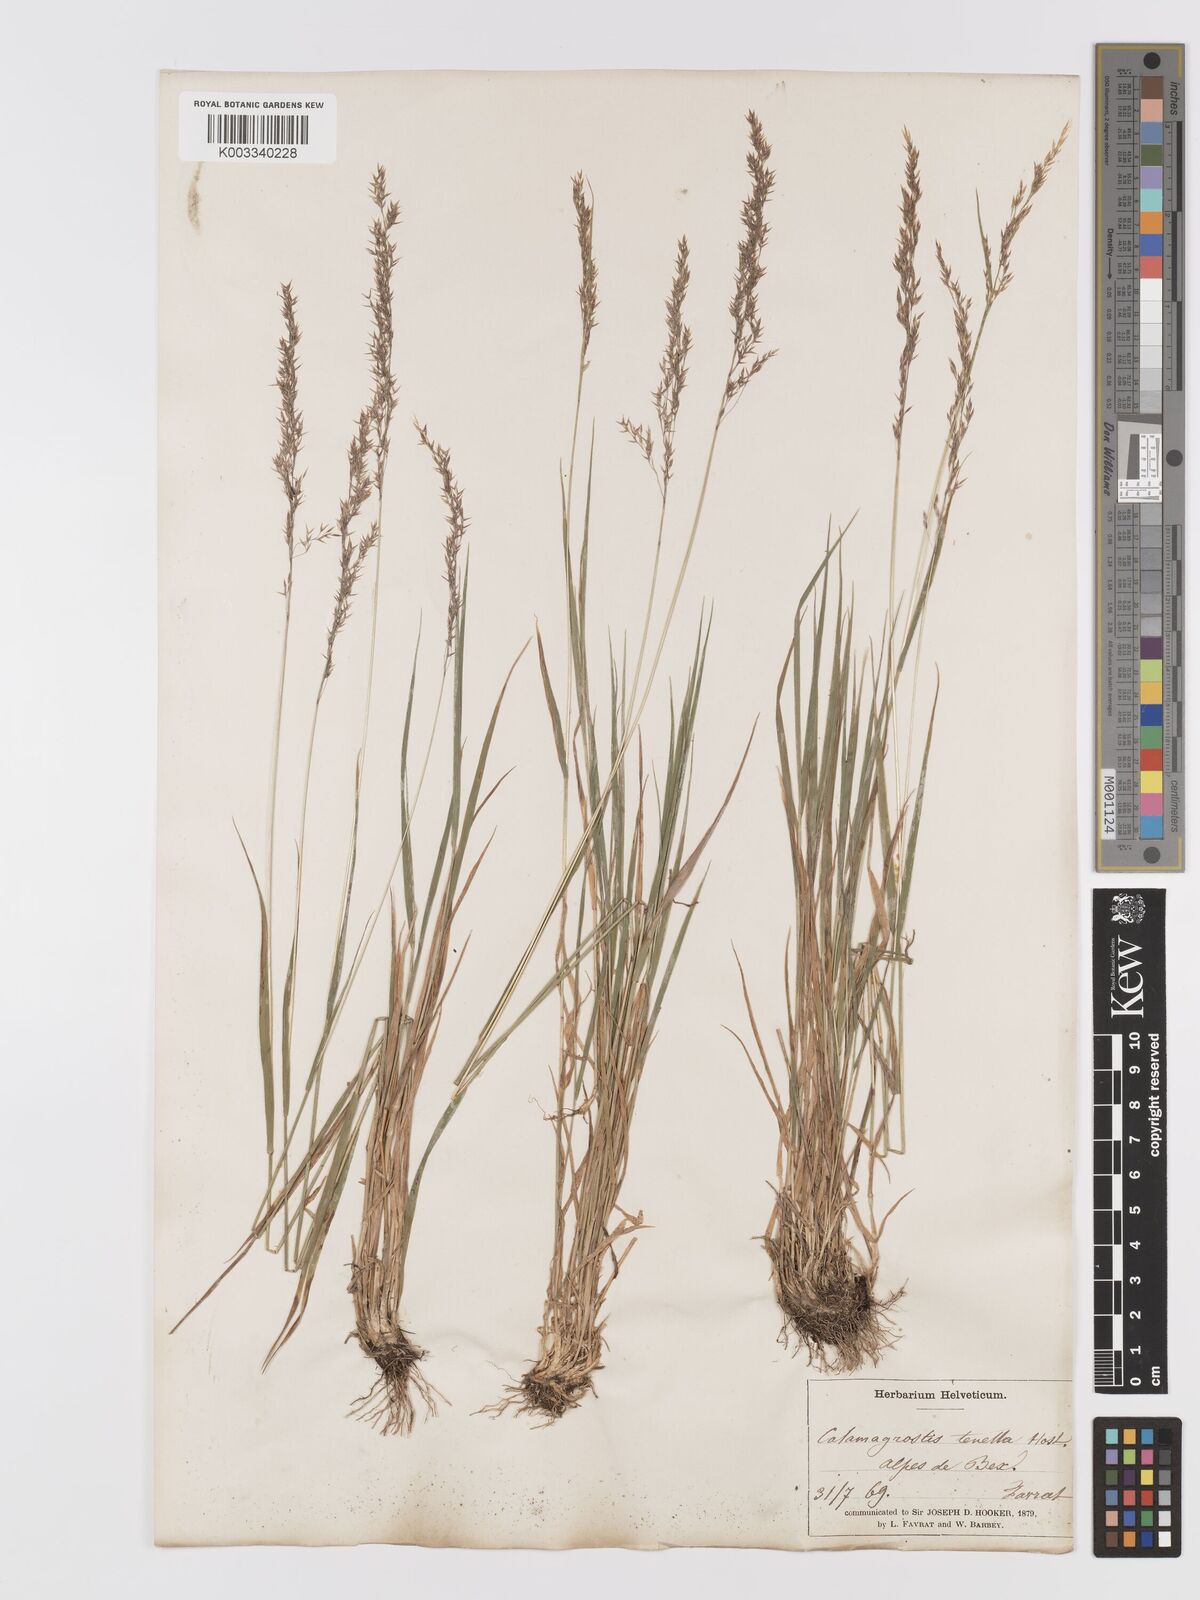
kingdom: Plantae
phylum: Tracheophyta
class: Liliopsida
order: Poales
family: Poaceae
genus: Agrostis
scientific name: Agrostis schraderiana
